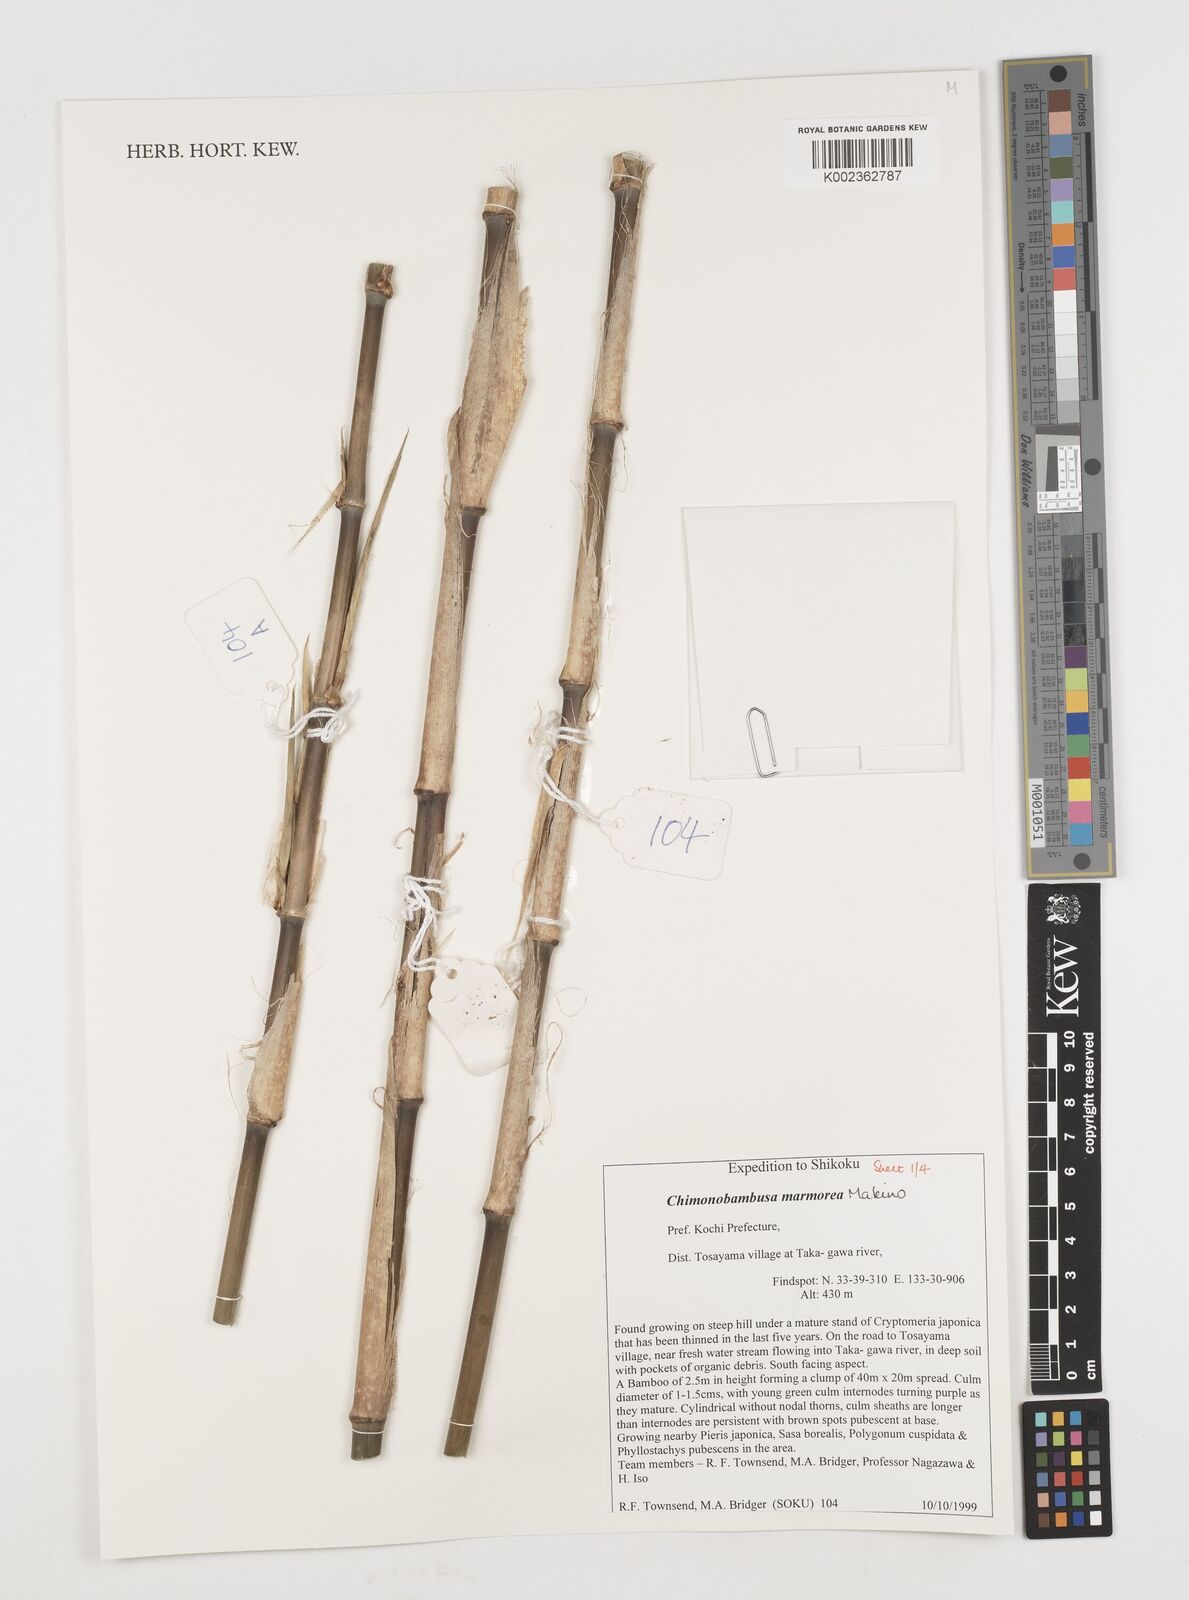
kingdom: Plantae
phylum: Tracheophyta
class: Liliopsida
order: Poales
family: Poaceae
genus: Chimonobambusa
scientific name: Chimonobambusa marmorea
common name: Marbled bamboo
